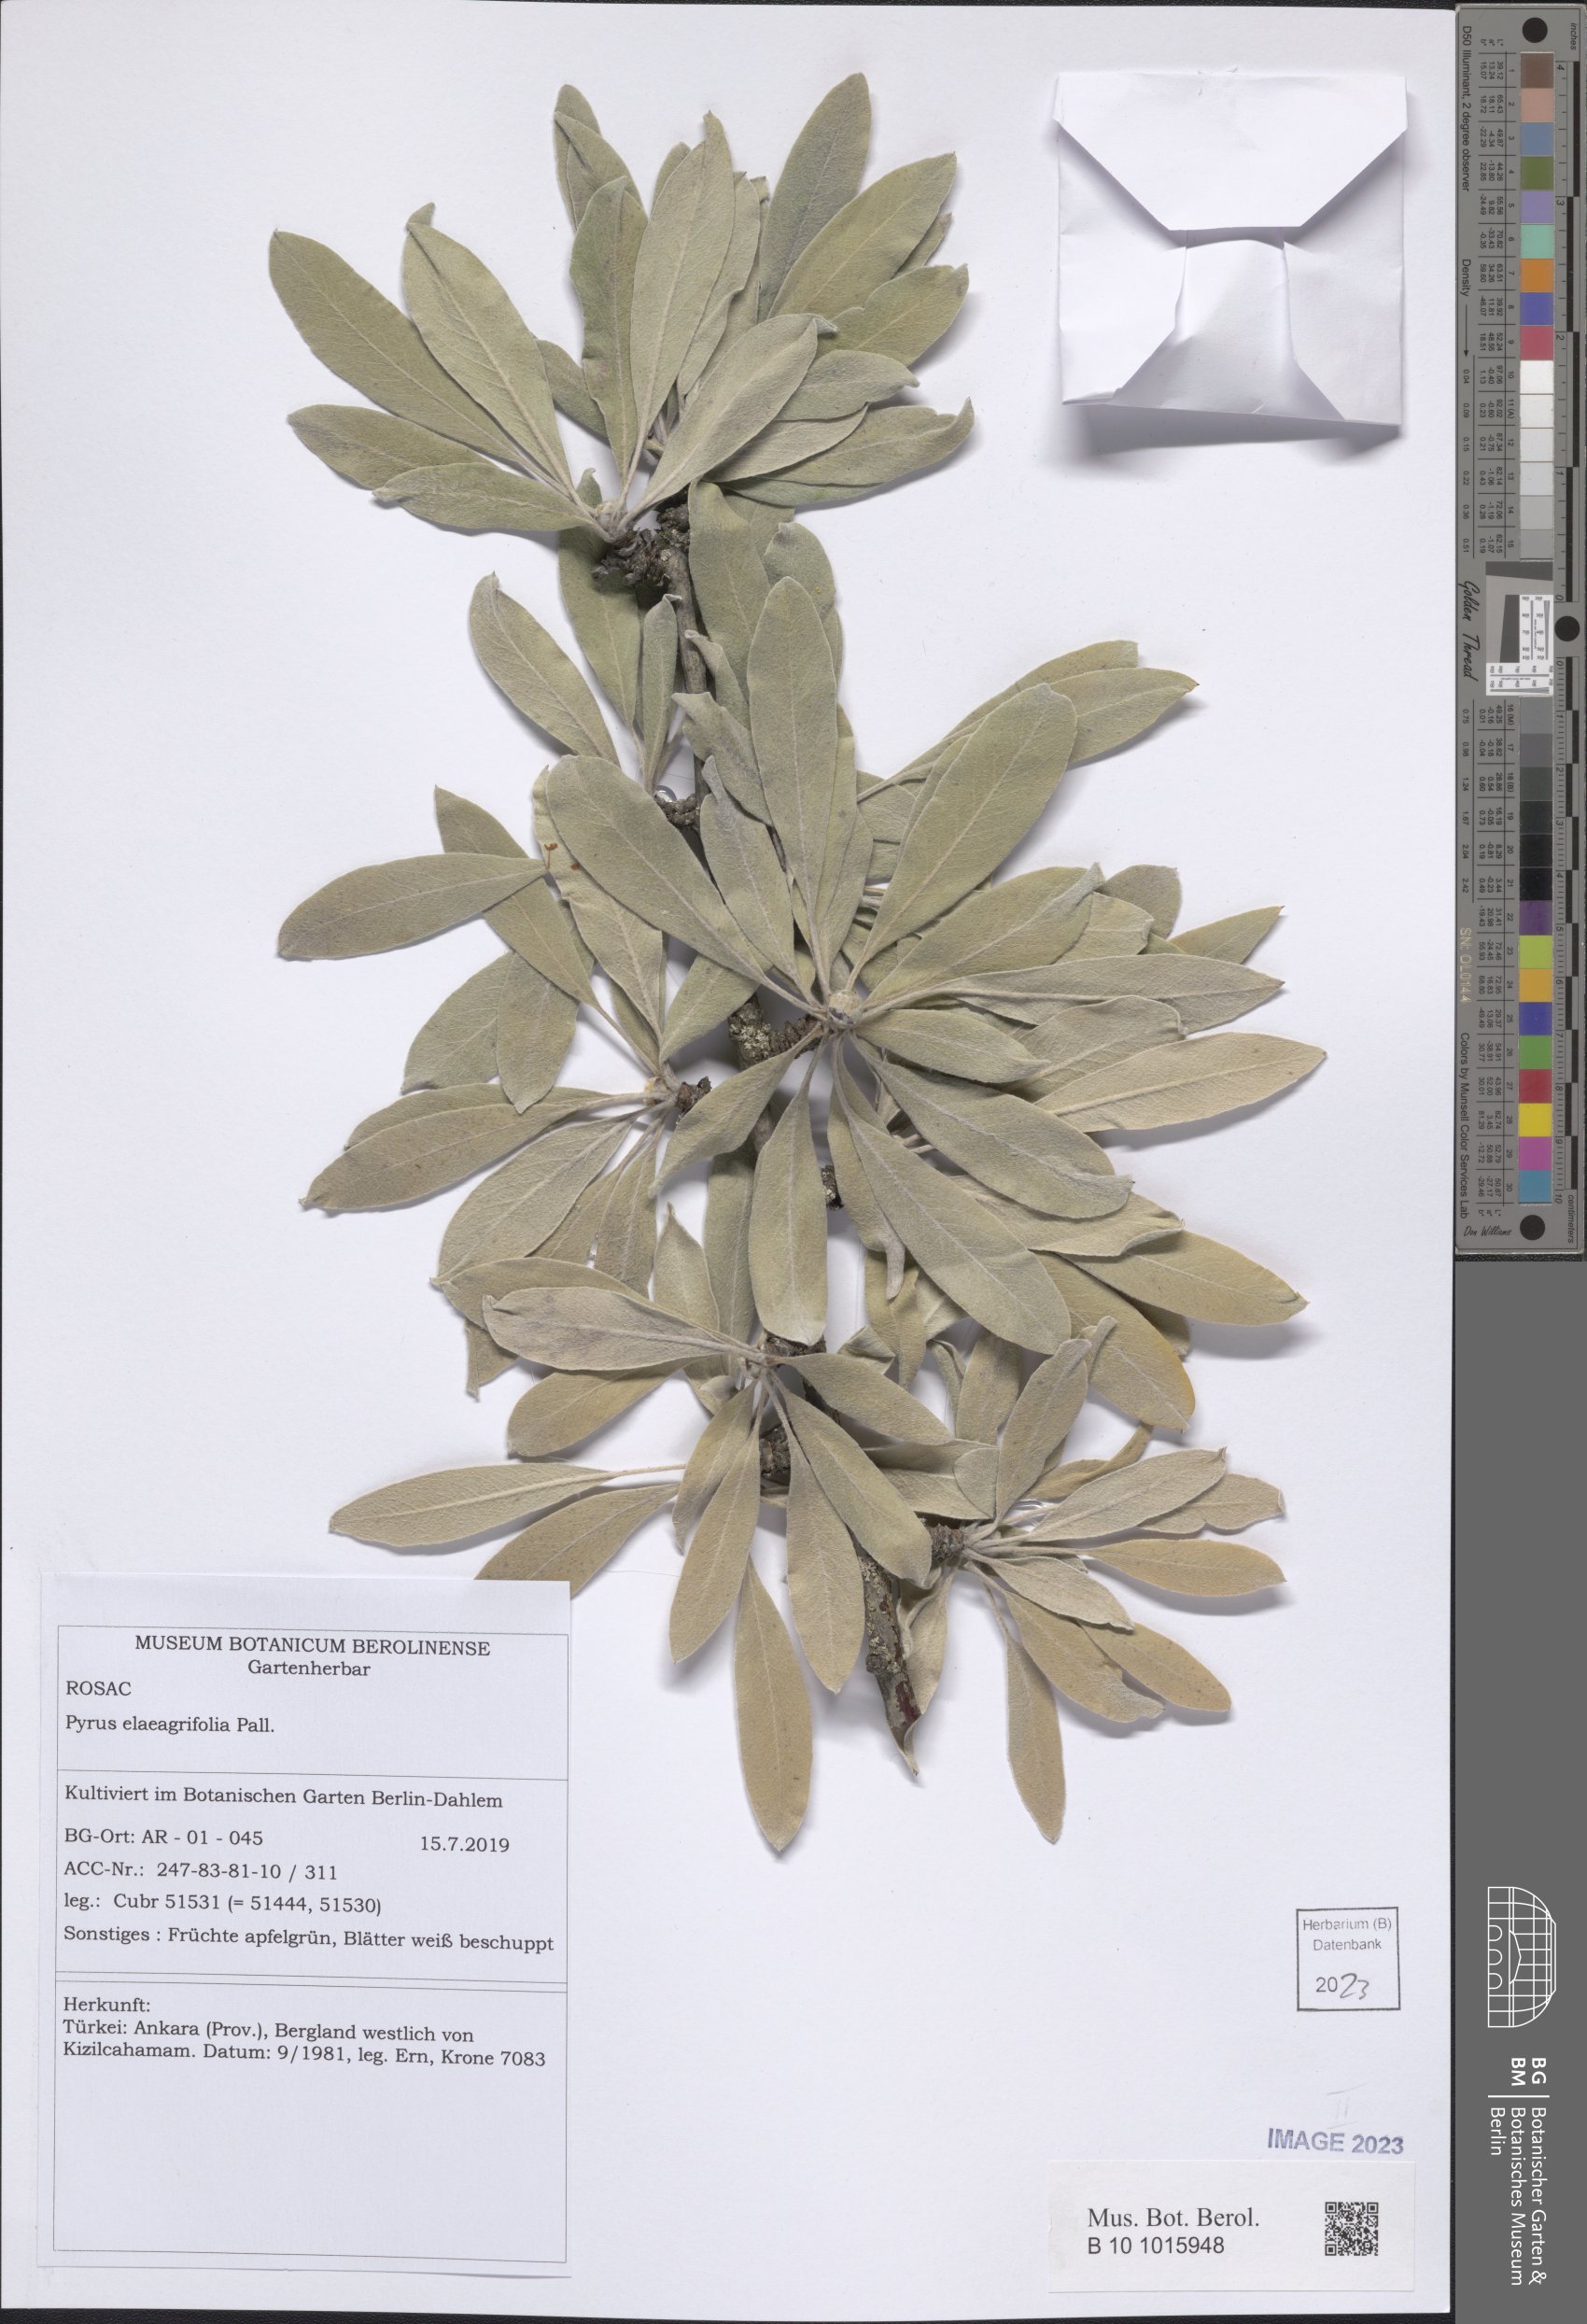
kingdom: Plantae
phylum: Tracheophyta
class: Magnoliopsida
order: Rosales
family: Rosaceae
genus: Pyrus
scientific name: Pyrus elaeagnifolia
